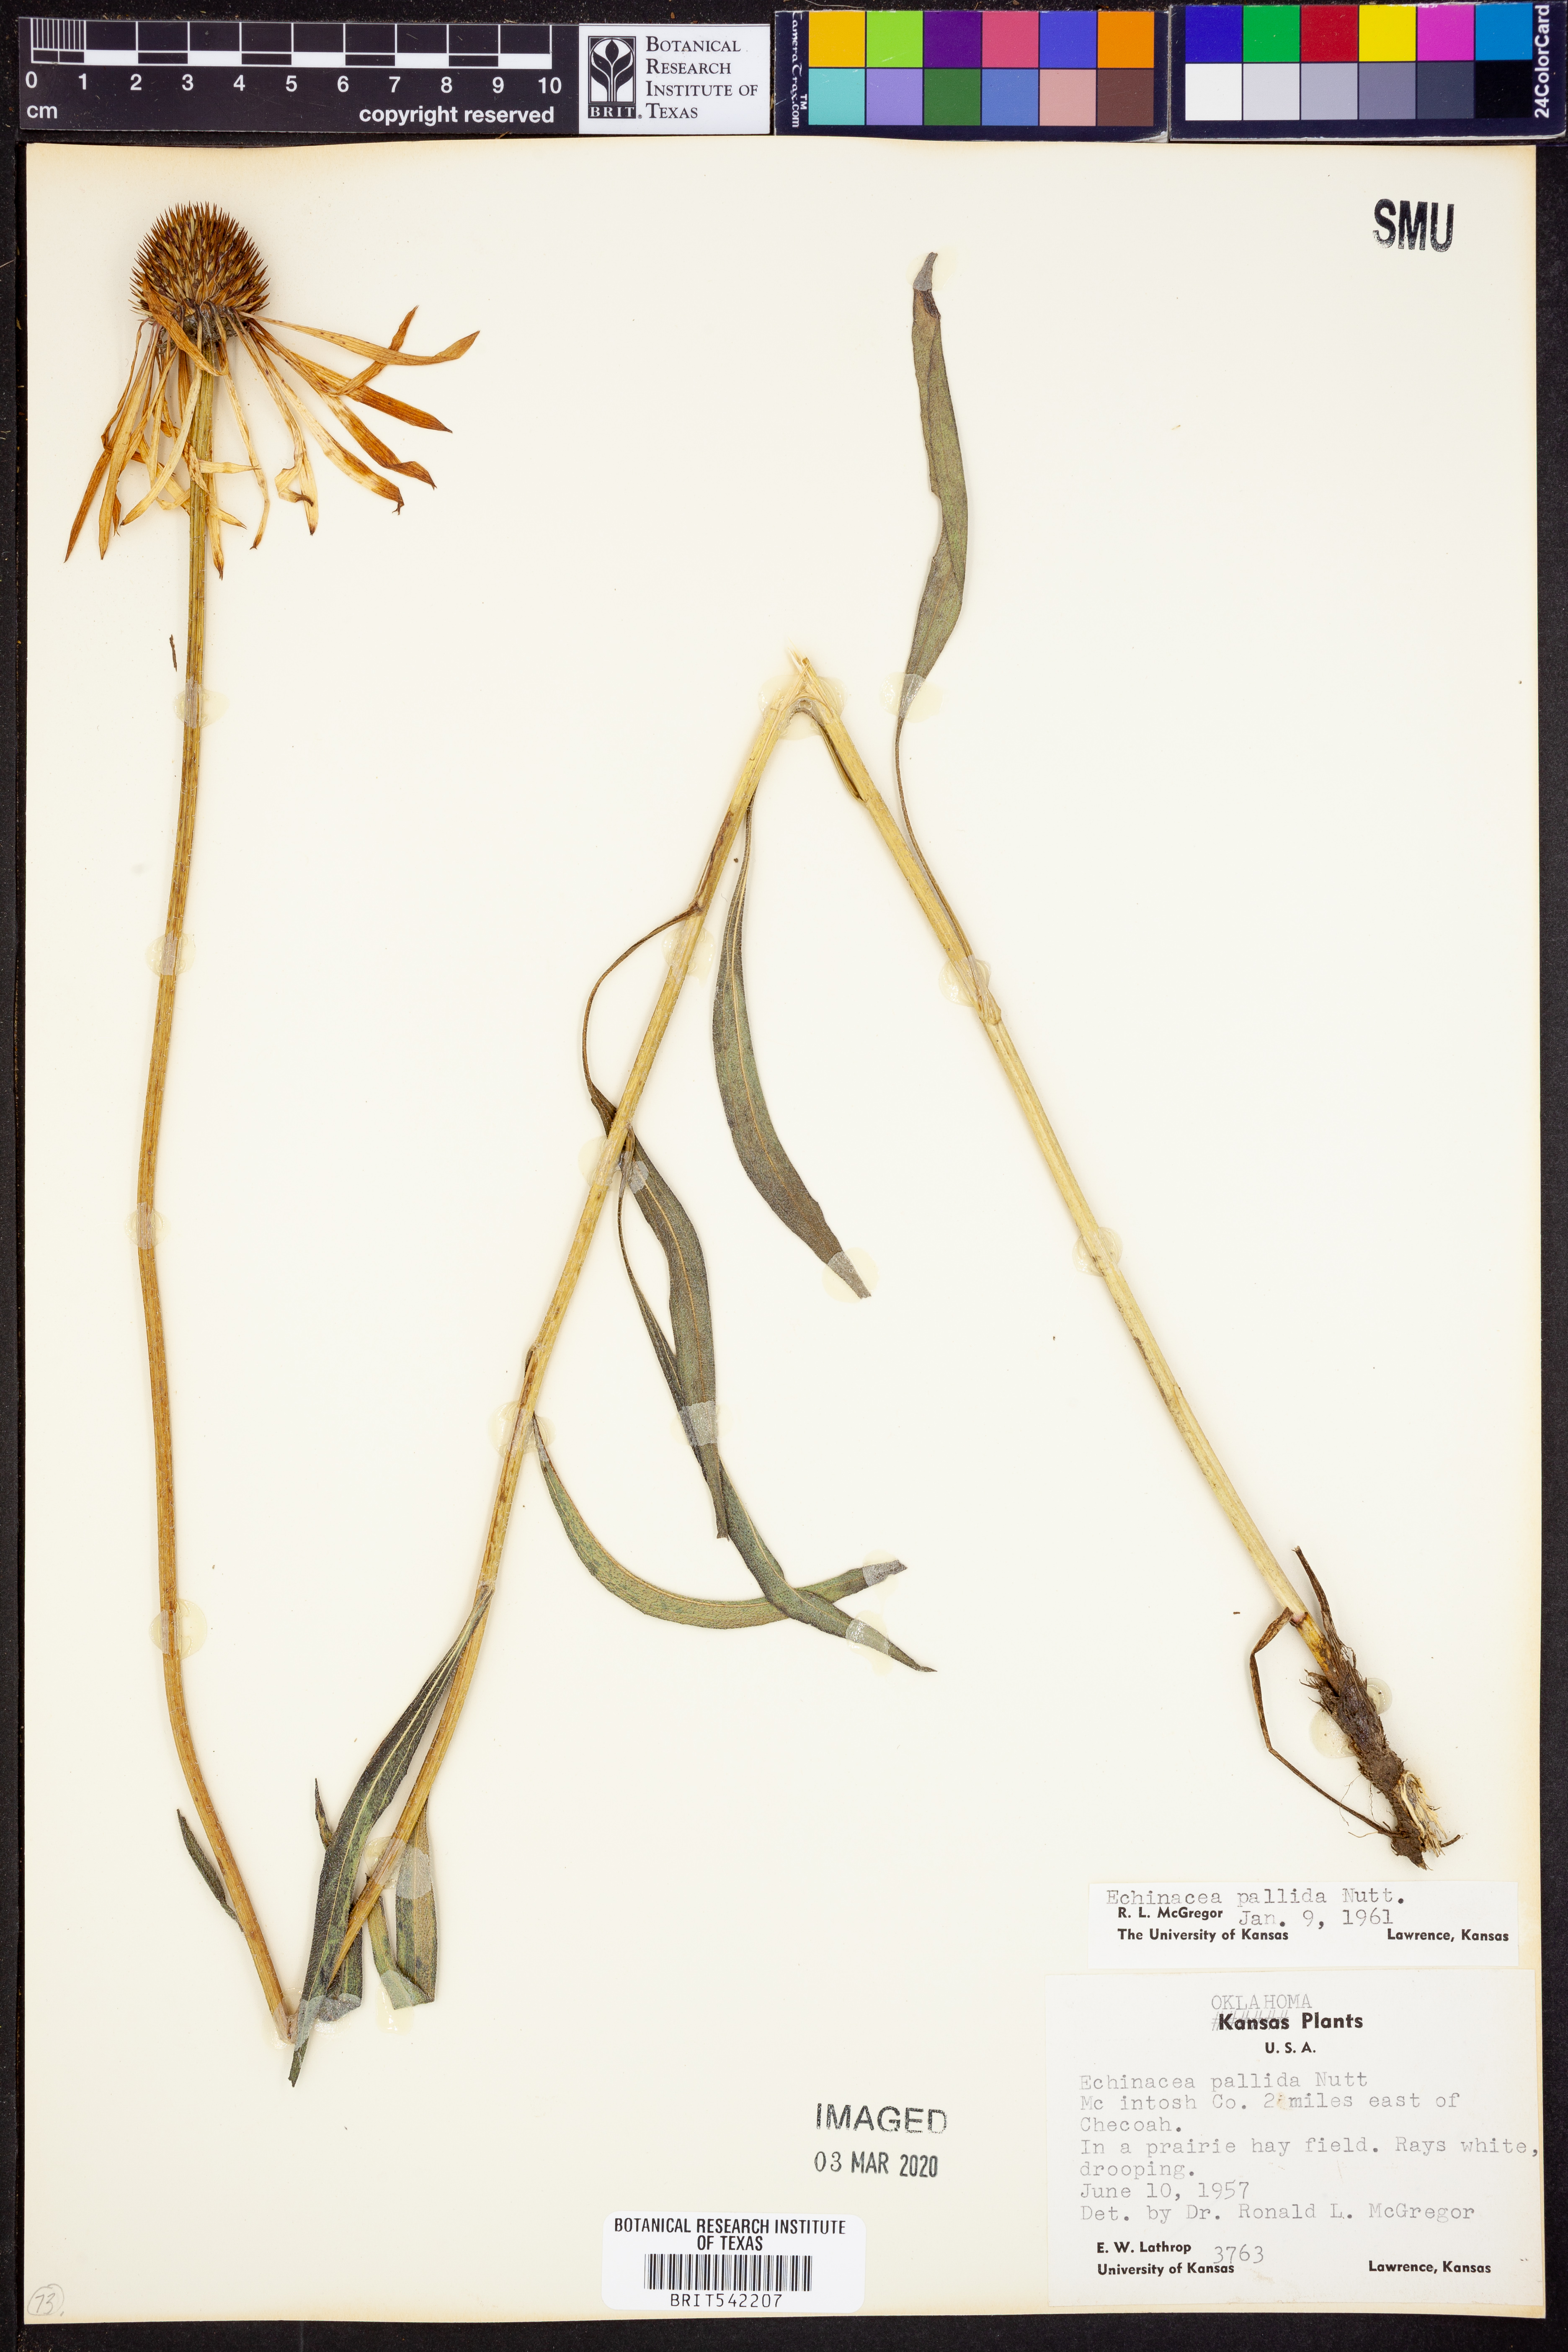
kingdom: Plantae
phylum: Tracheophyta
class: Magnoliopsida
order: Asterales
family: Asteraceae
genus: Echinacea
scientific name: Echinacea pallida
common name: Pale echinacea
